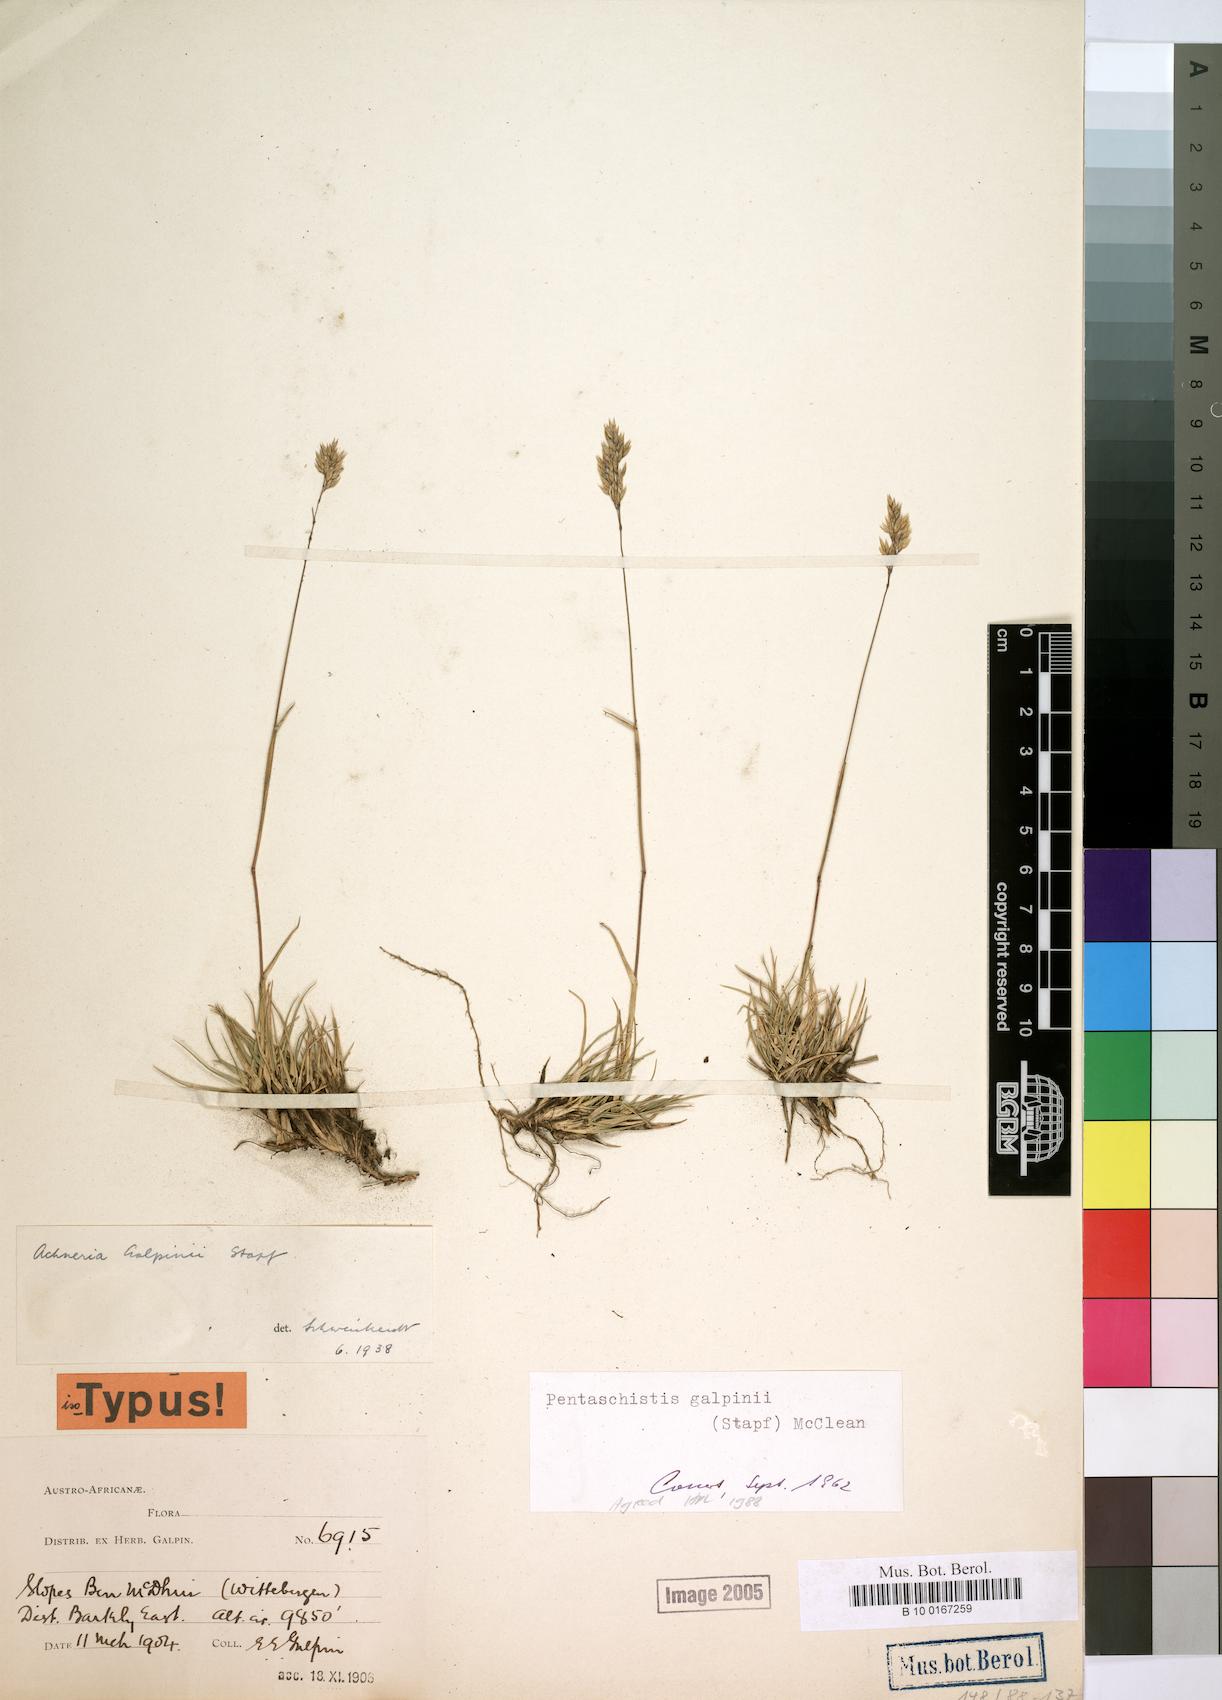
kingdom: Plantae
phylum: Tracheophyta
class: Liliopsida
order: Poales
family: Poaceae
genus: Pentameris
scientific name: Pentameris galpinii
